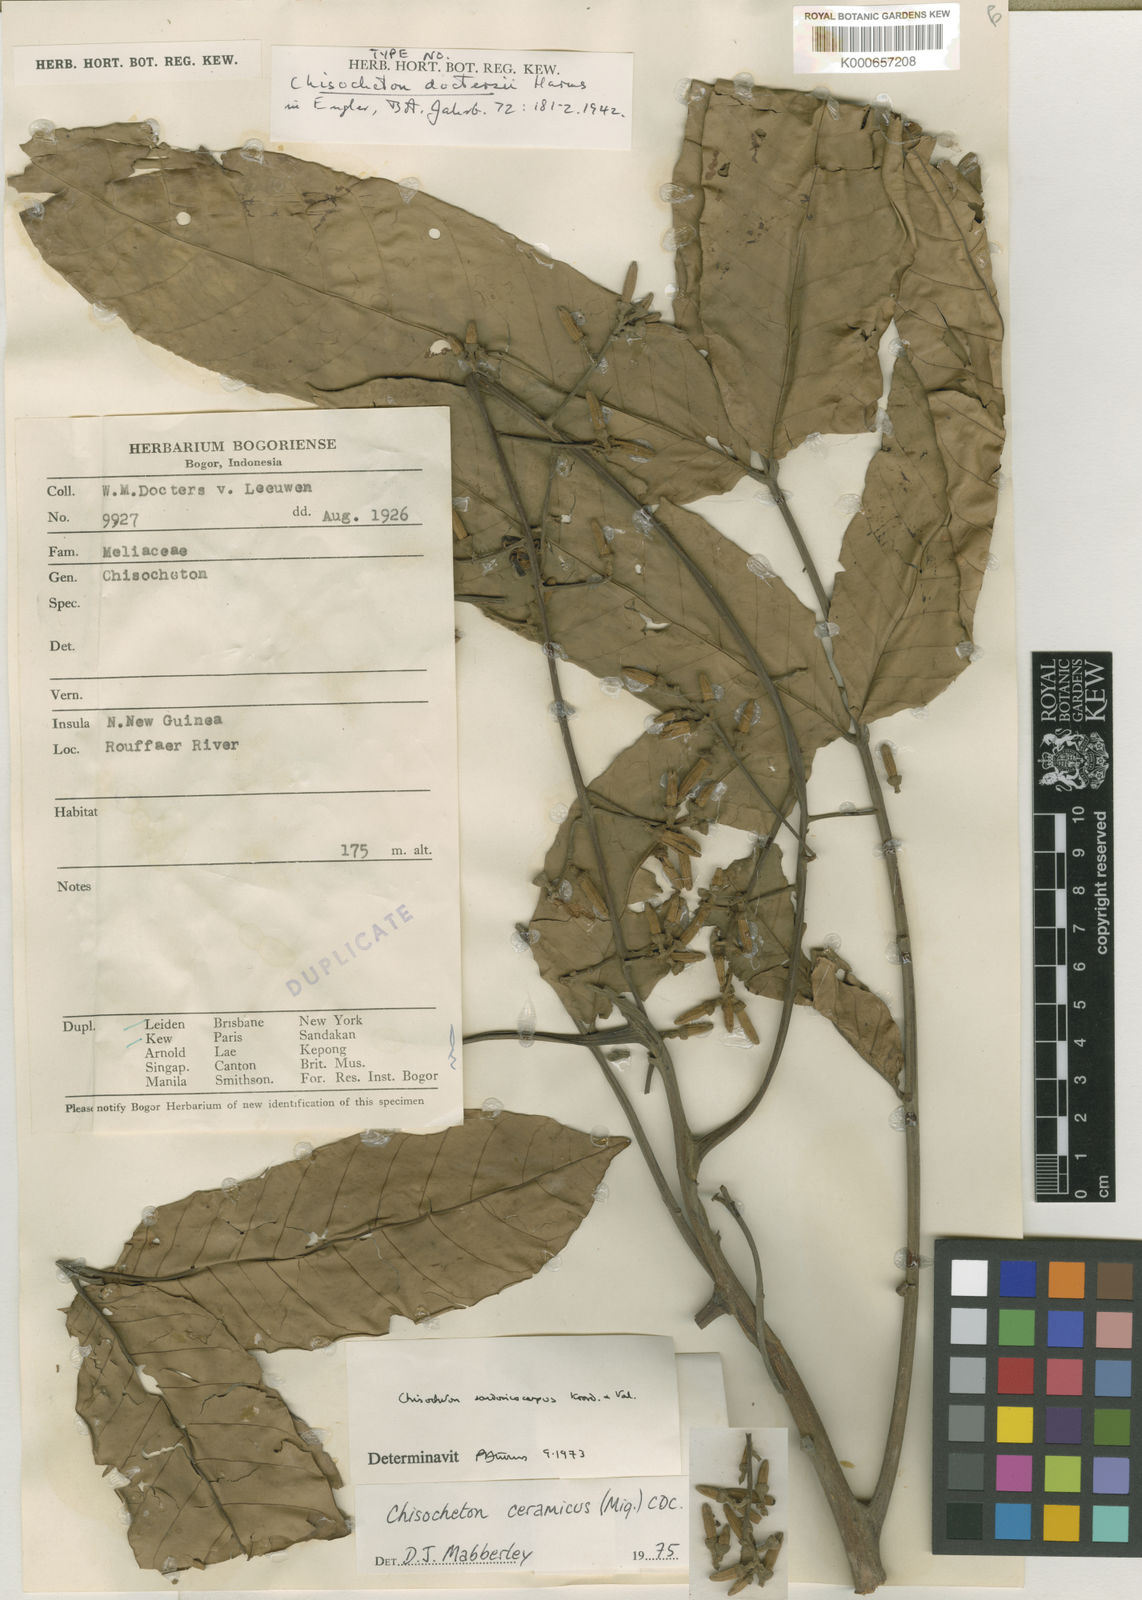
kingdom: Plantae
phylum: Tracheophyta
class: Magnoliopsida
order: Sapindales
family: Meliaceae
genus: Chisocheton
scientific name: Chisocheton ceramicus
